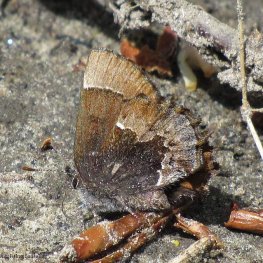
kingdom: Animalia
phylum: Arthropoda
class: Insecta
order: Lepidoptera
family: Lycaenidae
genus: Incisalia
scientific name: Incisalia henrici
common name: Henry's Elfin
